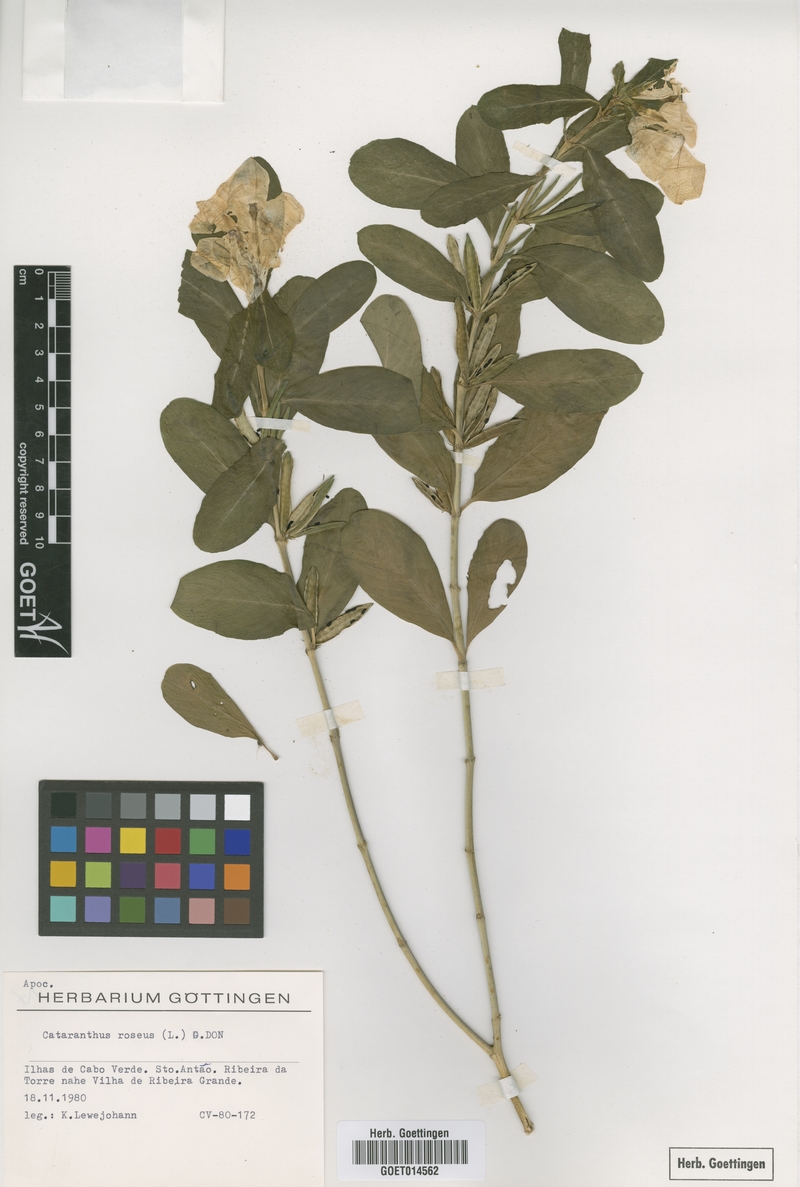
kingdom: Plantae
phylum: Tracheophyta
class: Magnoliopsida
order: Gentianales
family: Apocynaceae
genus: Catharanthus
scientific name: Catharanthus roseus
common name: Madagascar periwinkle
